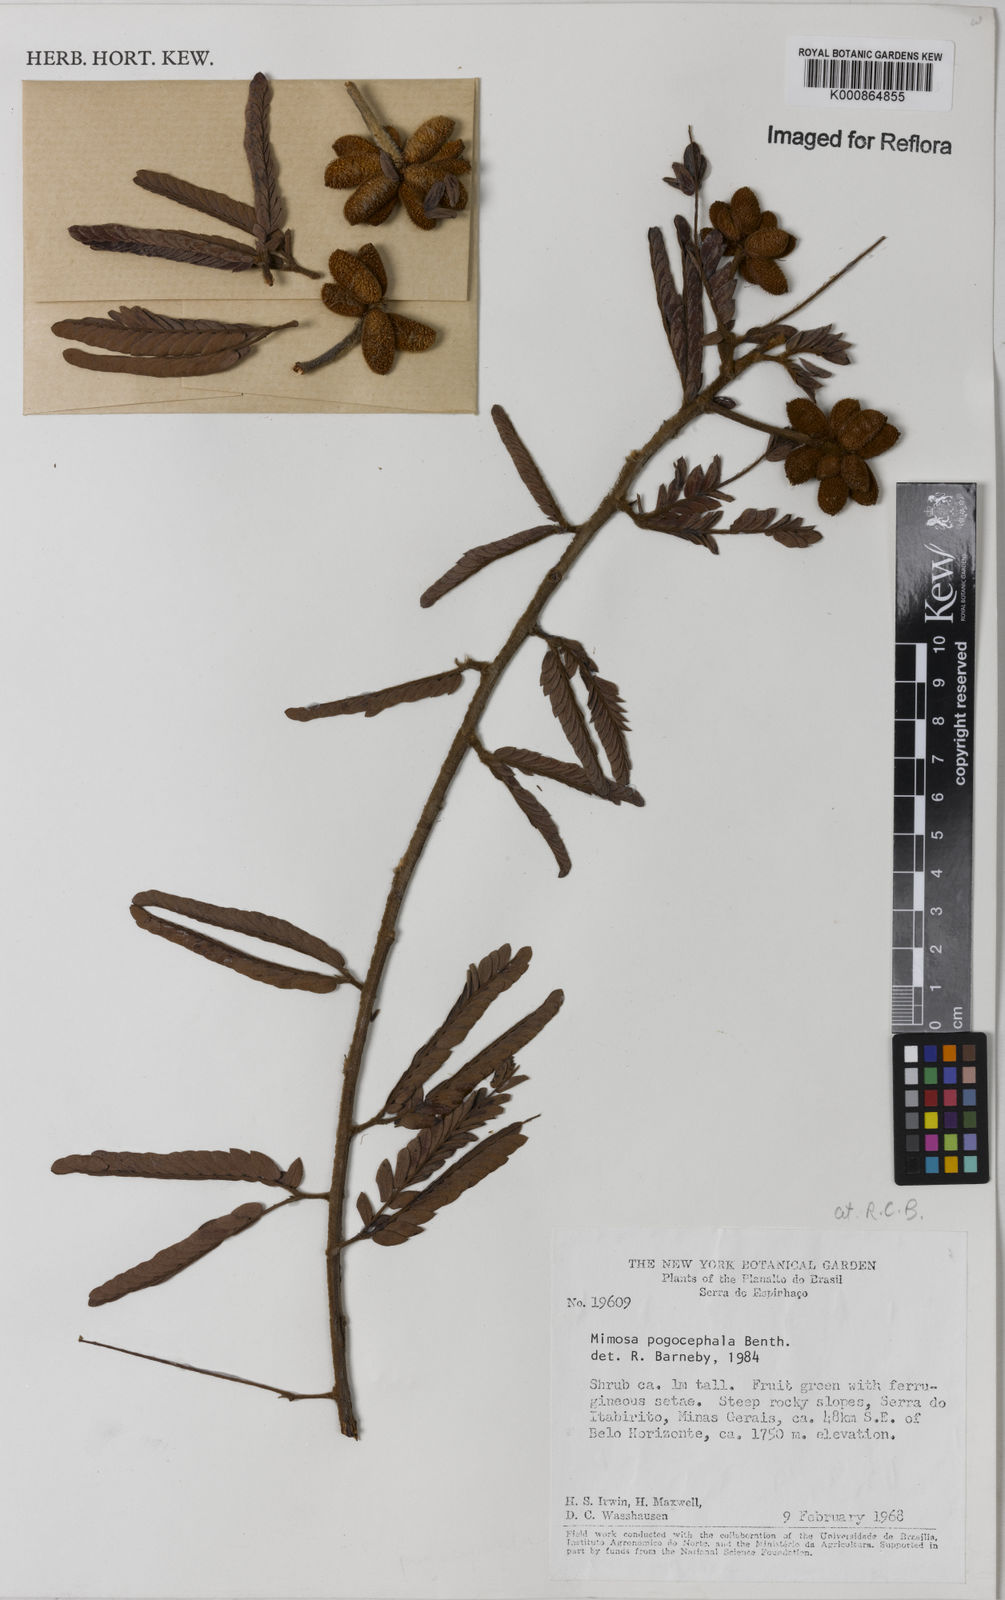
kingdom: Plantae
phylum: Tracheophyta
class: Magnoliopsida
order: Fabales
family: Fabaceae
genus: Mimosa
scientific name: Mimosa pogocephala
